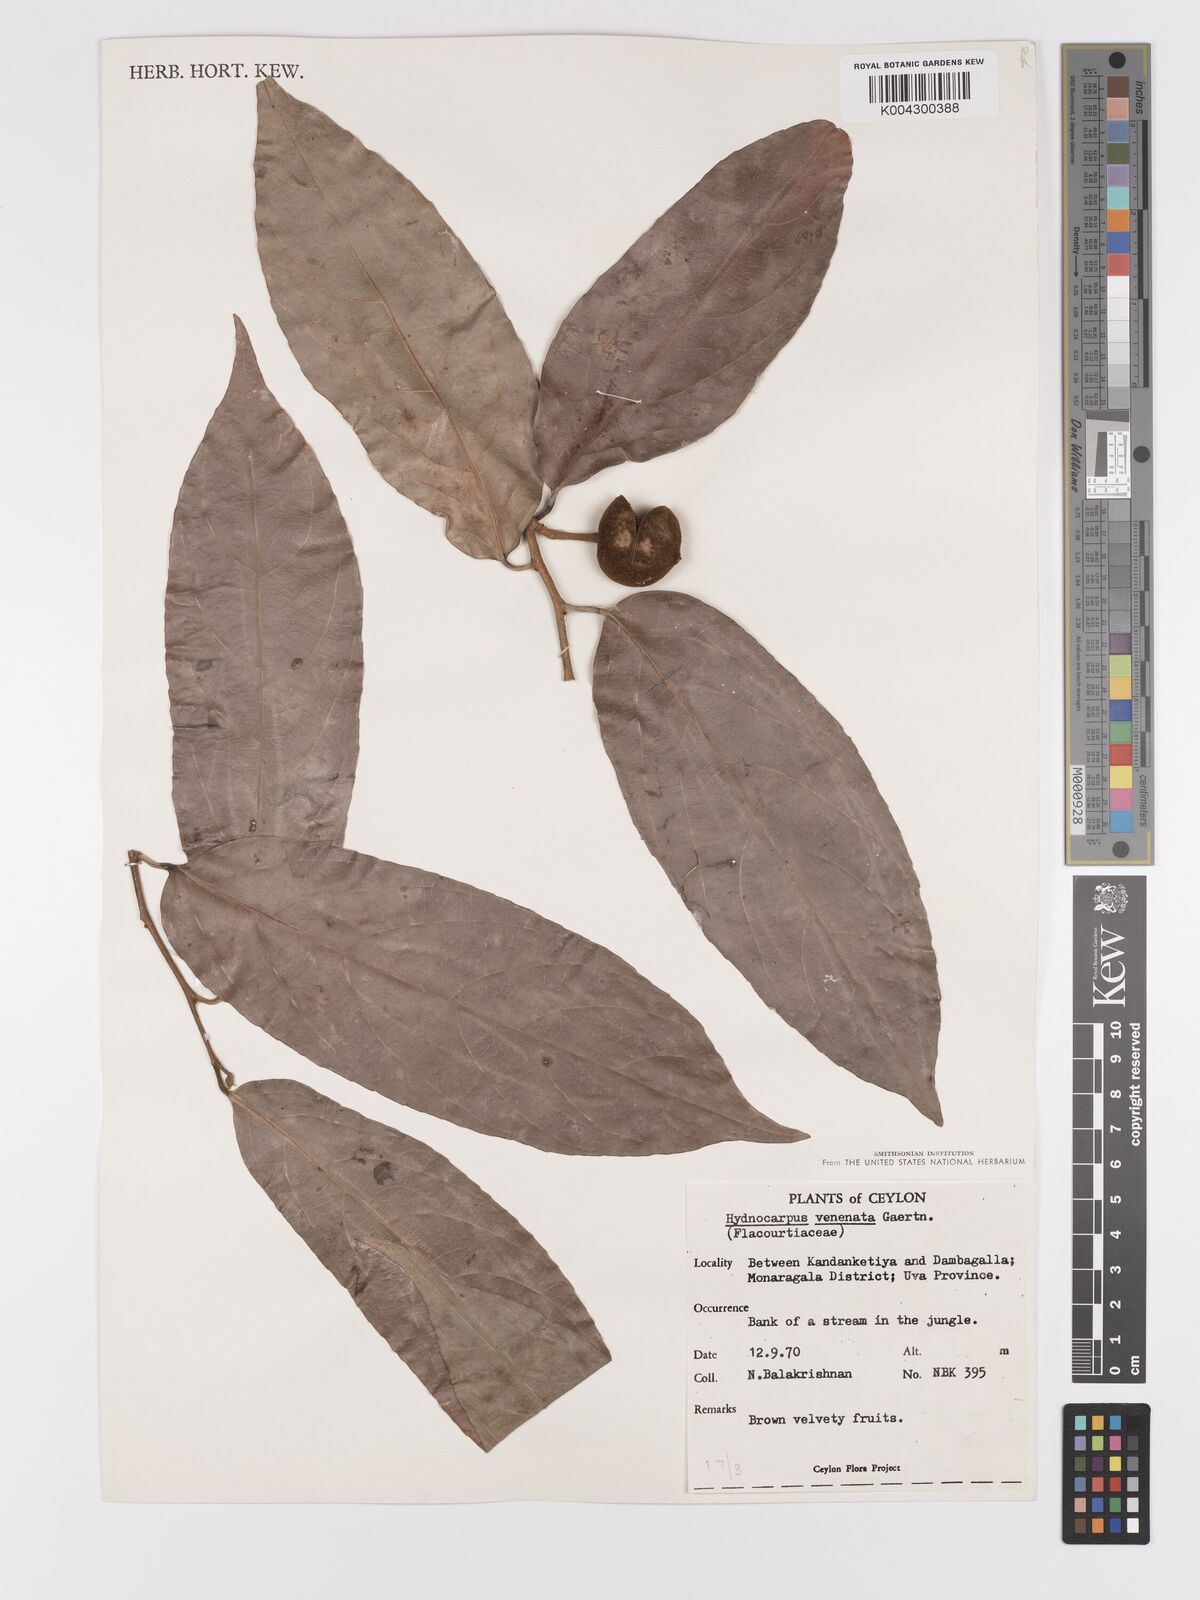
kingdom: Plantae
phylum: Tracheophyta
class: Magnoliopsida
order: Malpighiales
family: Achariaceae
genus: Hydnocarpus
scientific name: Hydnocarpus venenatus
